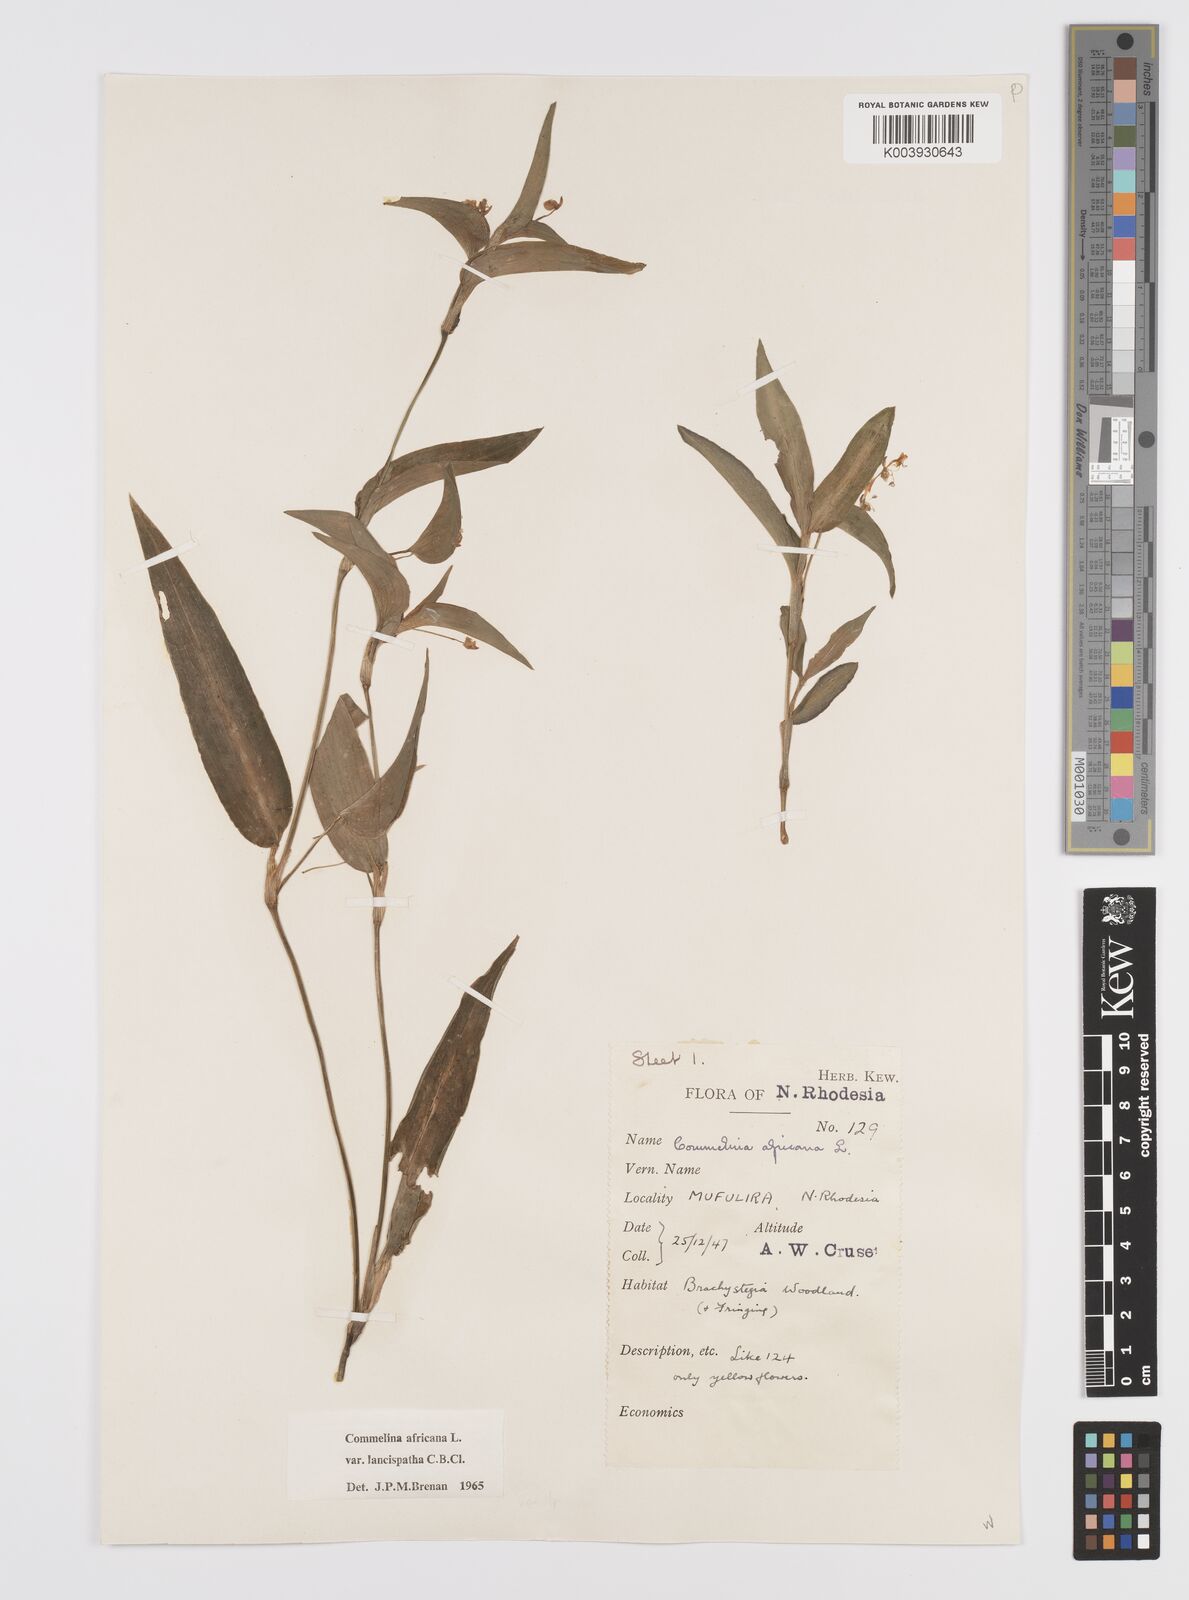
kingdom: Plantae
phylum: Tracheophyta
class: Liliopsida
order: Commelinales
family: Commelinaceae
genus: Commelina
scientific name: Commelina africana
